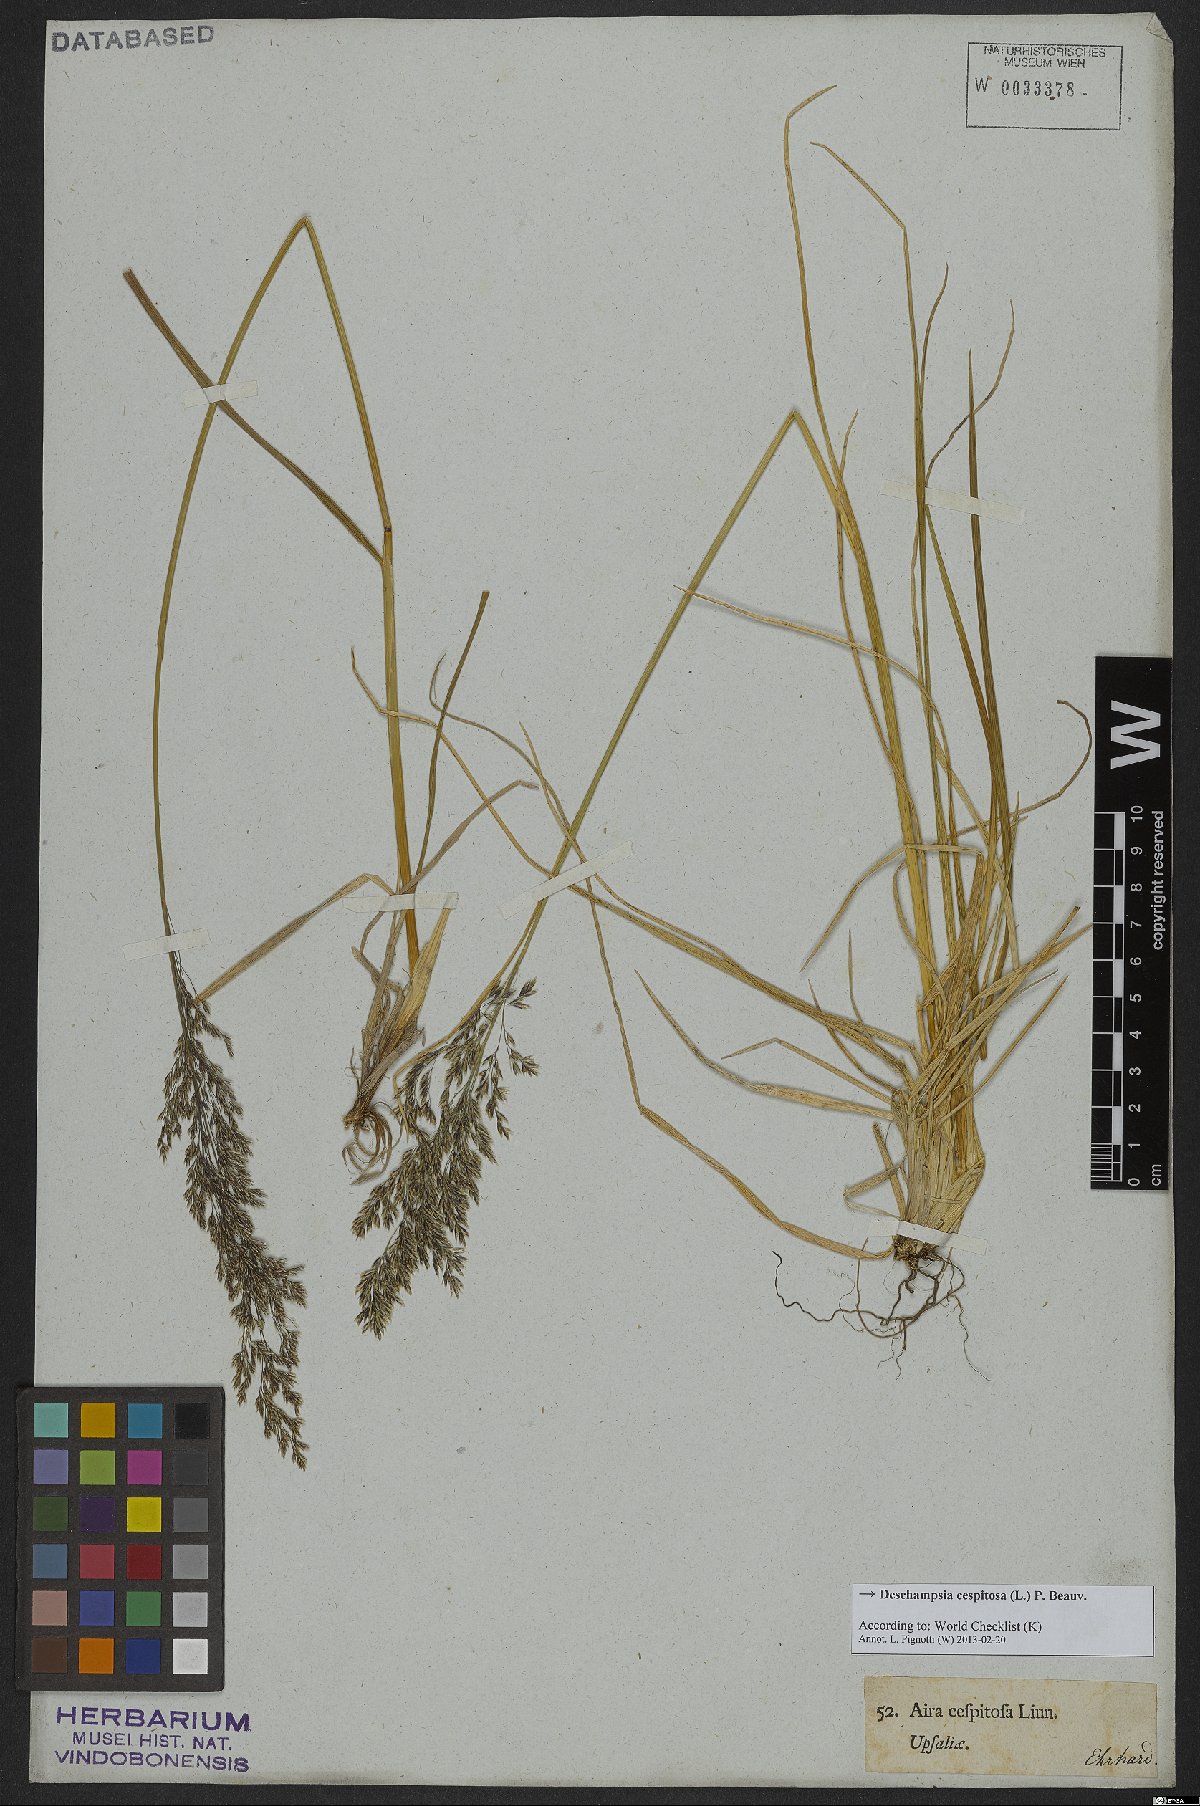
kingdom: Plantae
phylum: Tracheophyta
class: Liliopsida
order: Poales
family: Poaceae
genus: Deschampsia
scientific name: Deschampsia cespitosa
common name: Tufted hair-grass
